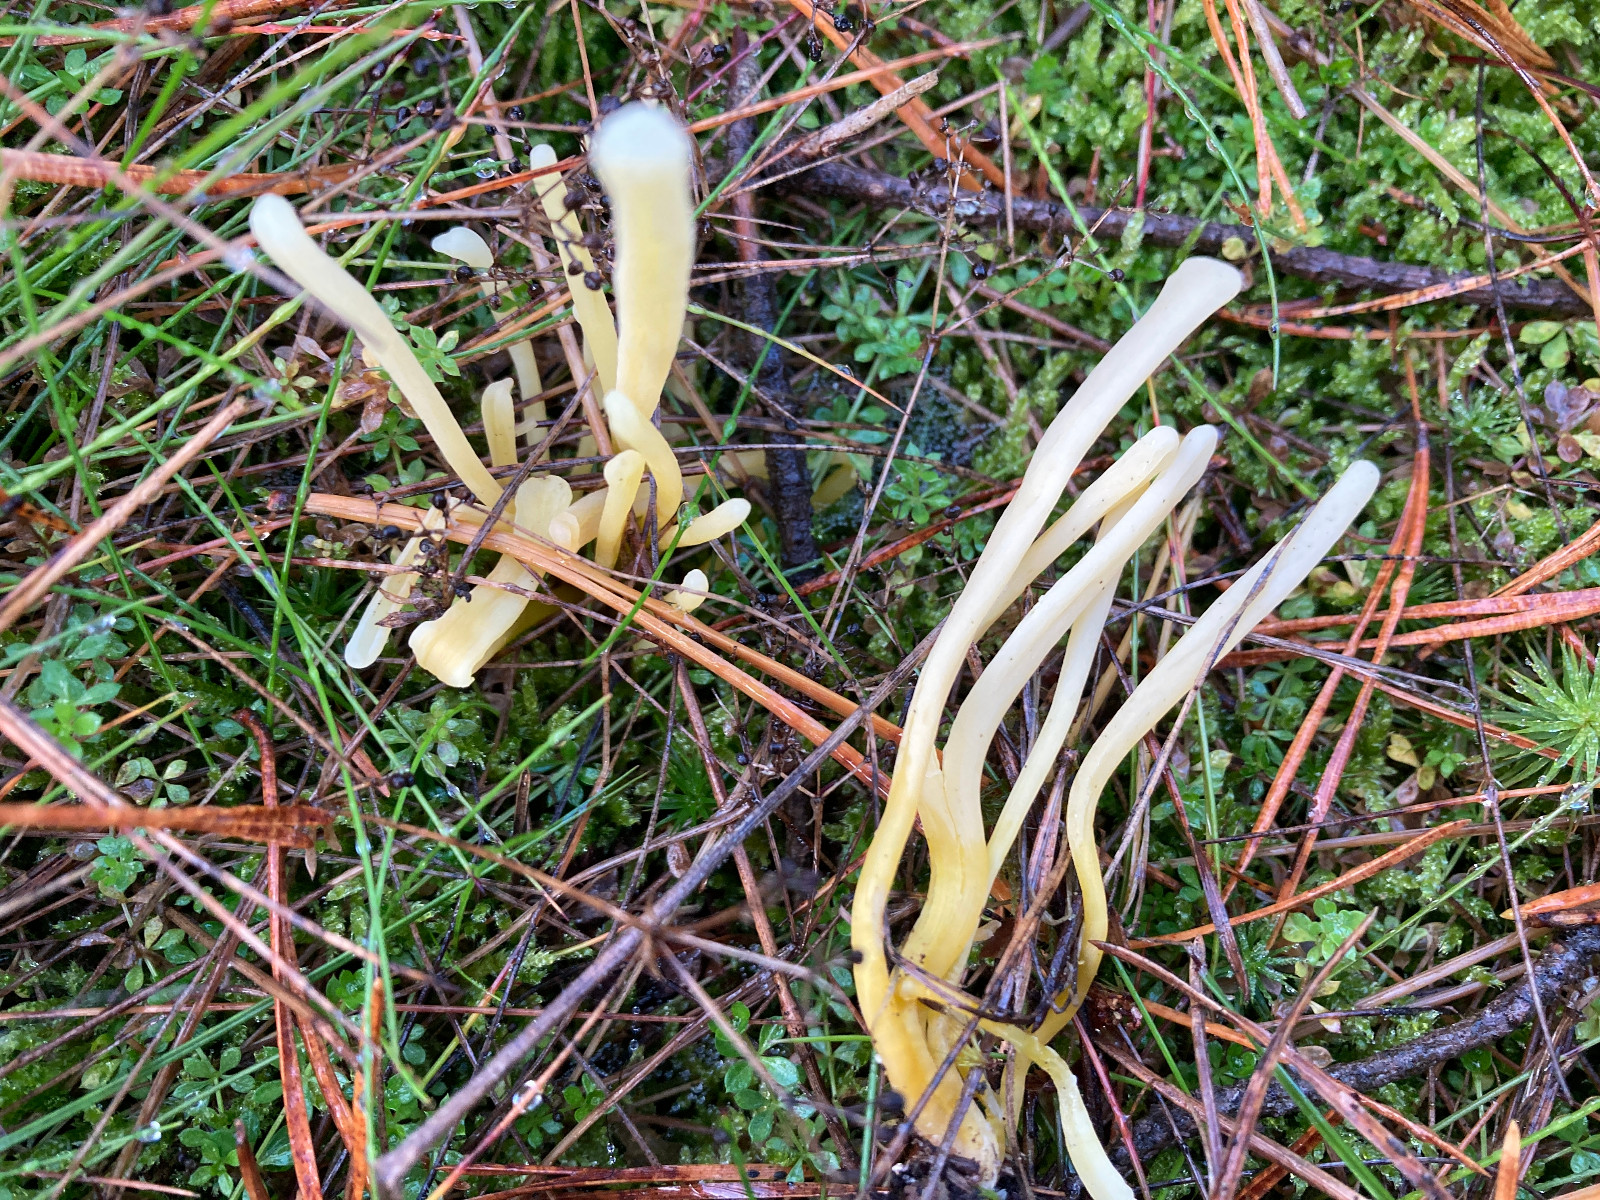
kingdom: Fungi
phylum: Basidiomycota
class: Agaricomycetes
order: Agaricales
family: Clavariaceae
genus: Clavaria
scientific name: Clavaria argillacea
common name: lerfarvet køllesvamp
